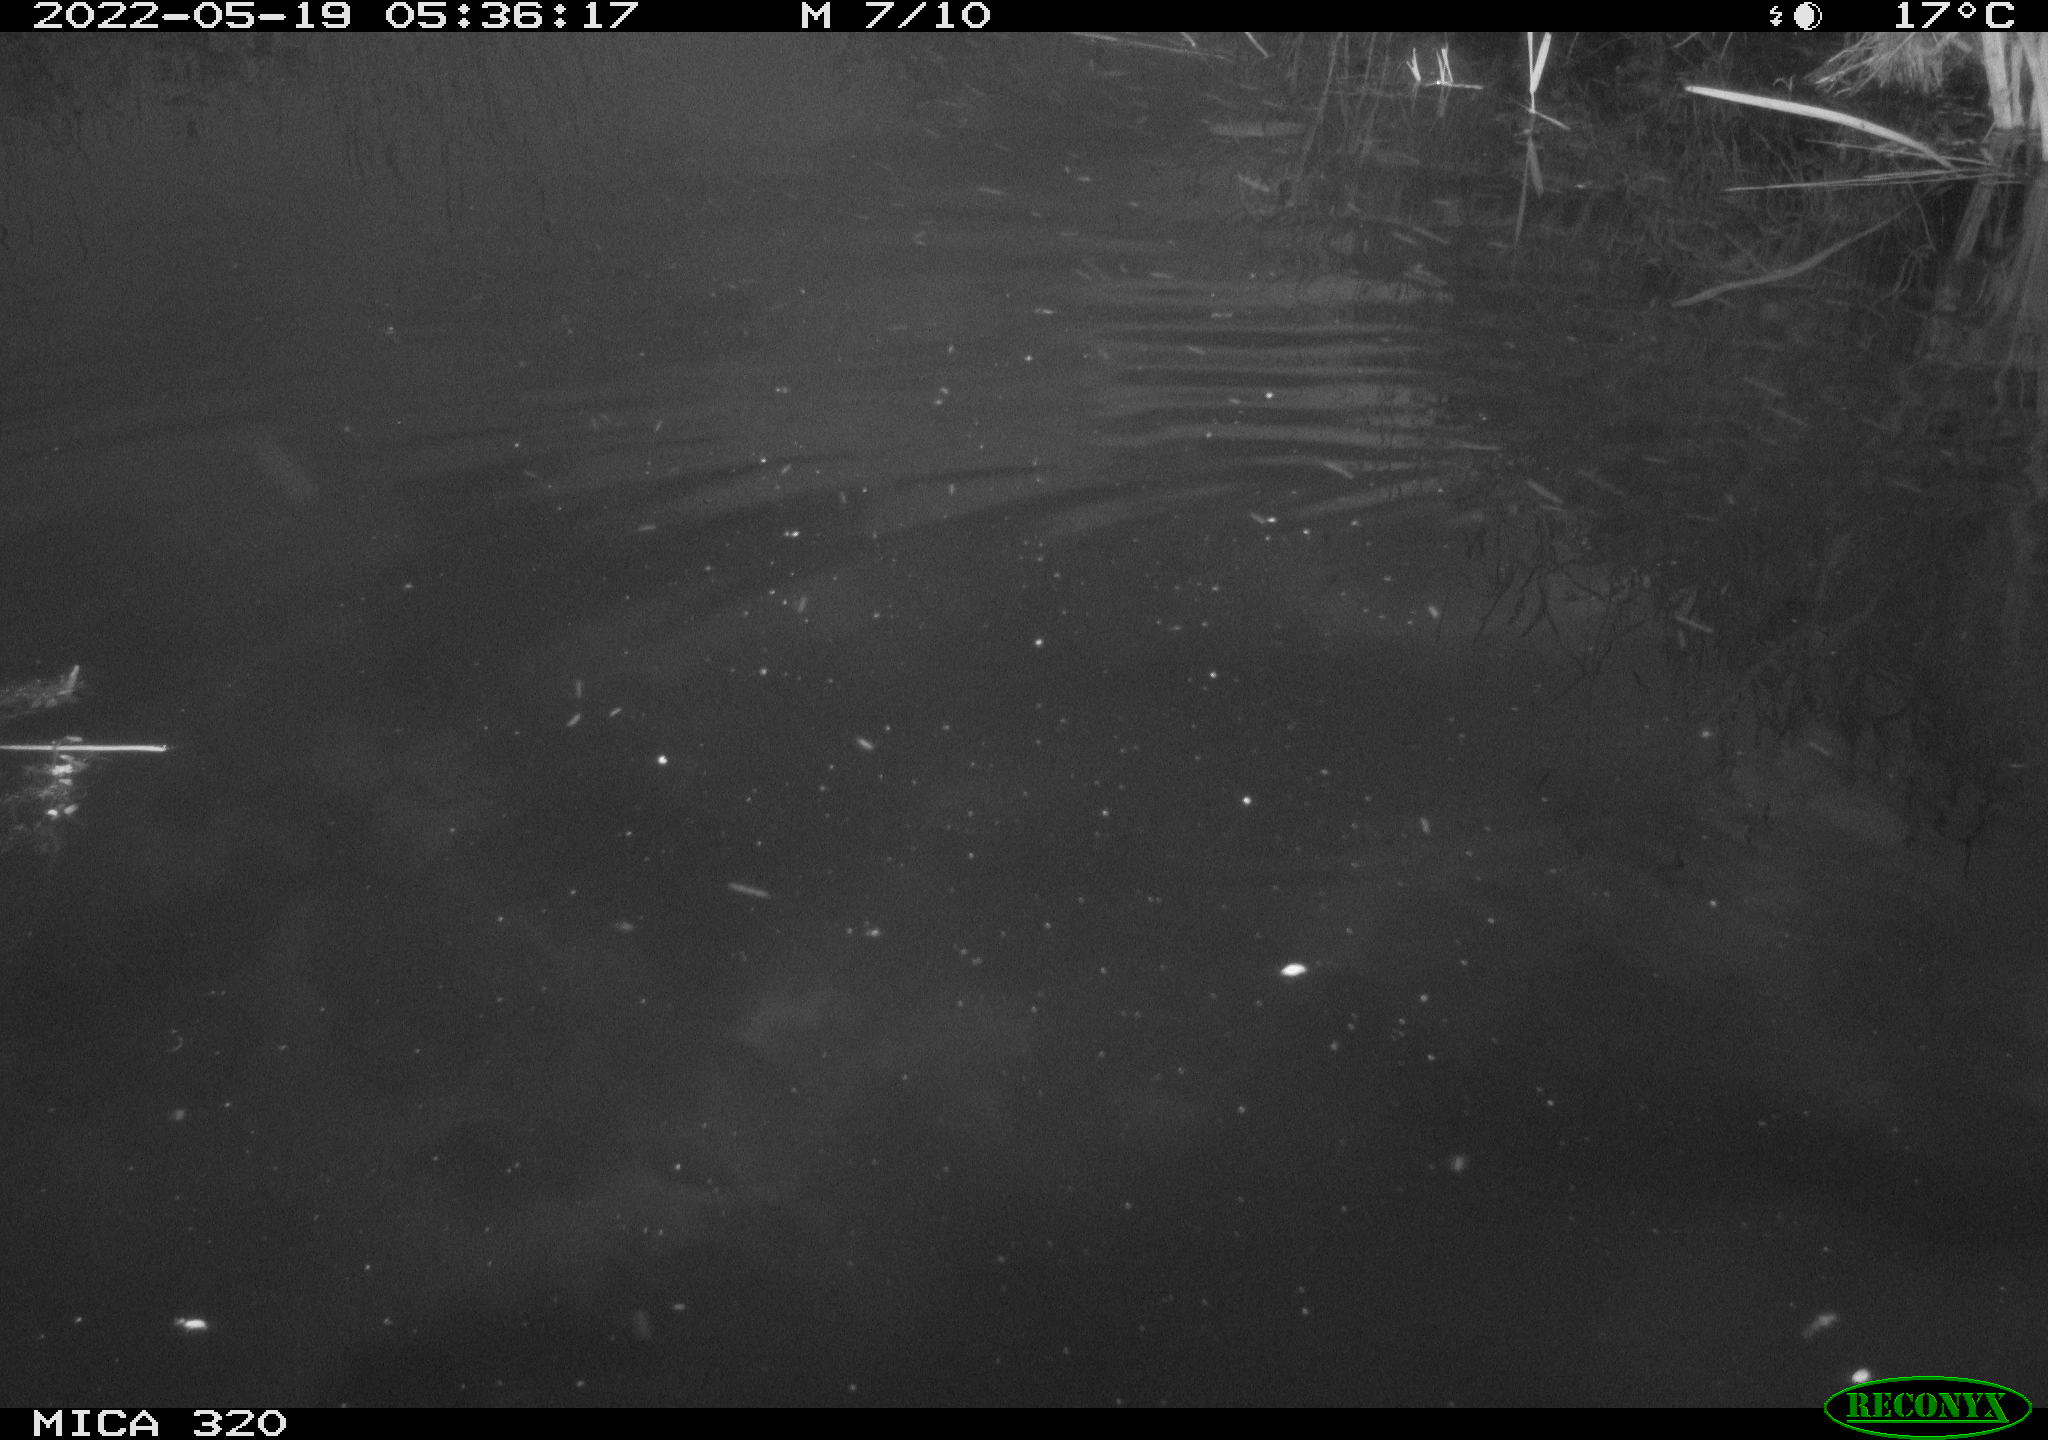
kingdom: Animalia
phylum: Chordata
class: Aves
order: Gruiformes
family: Rallidae
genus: Gallinula
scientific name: Gallinula chloropus
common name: Common moorhen
